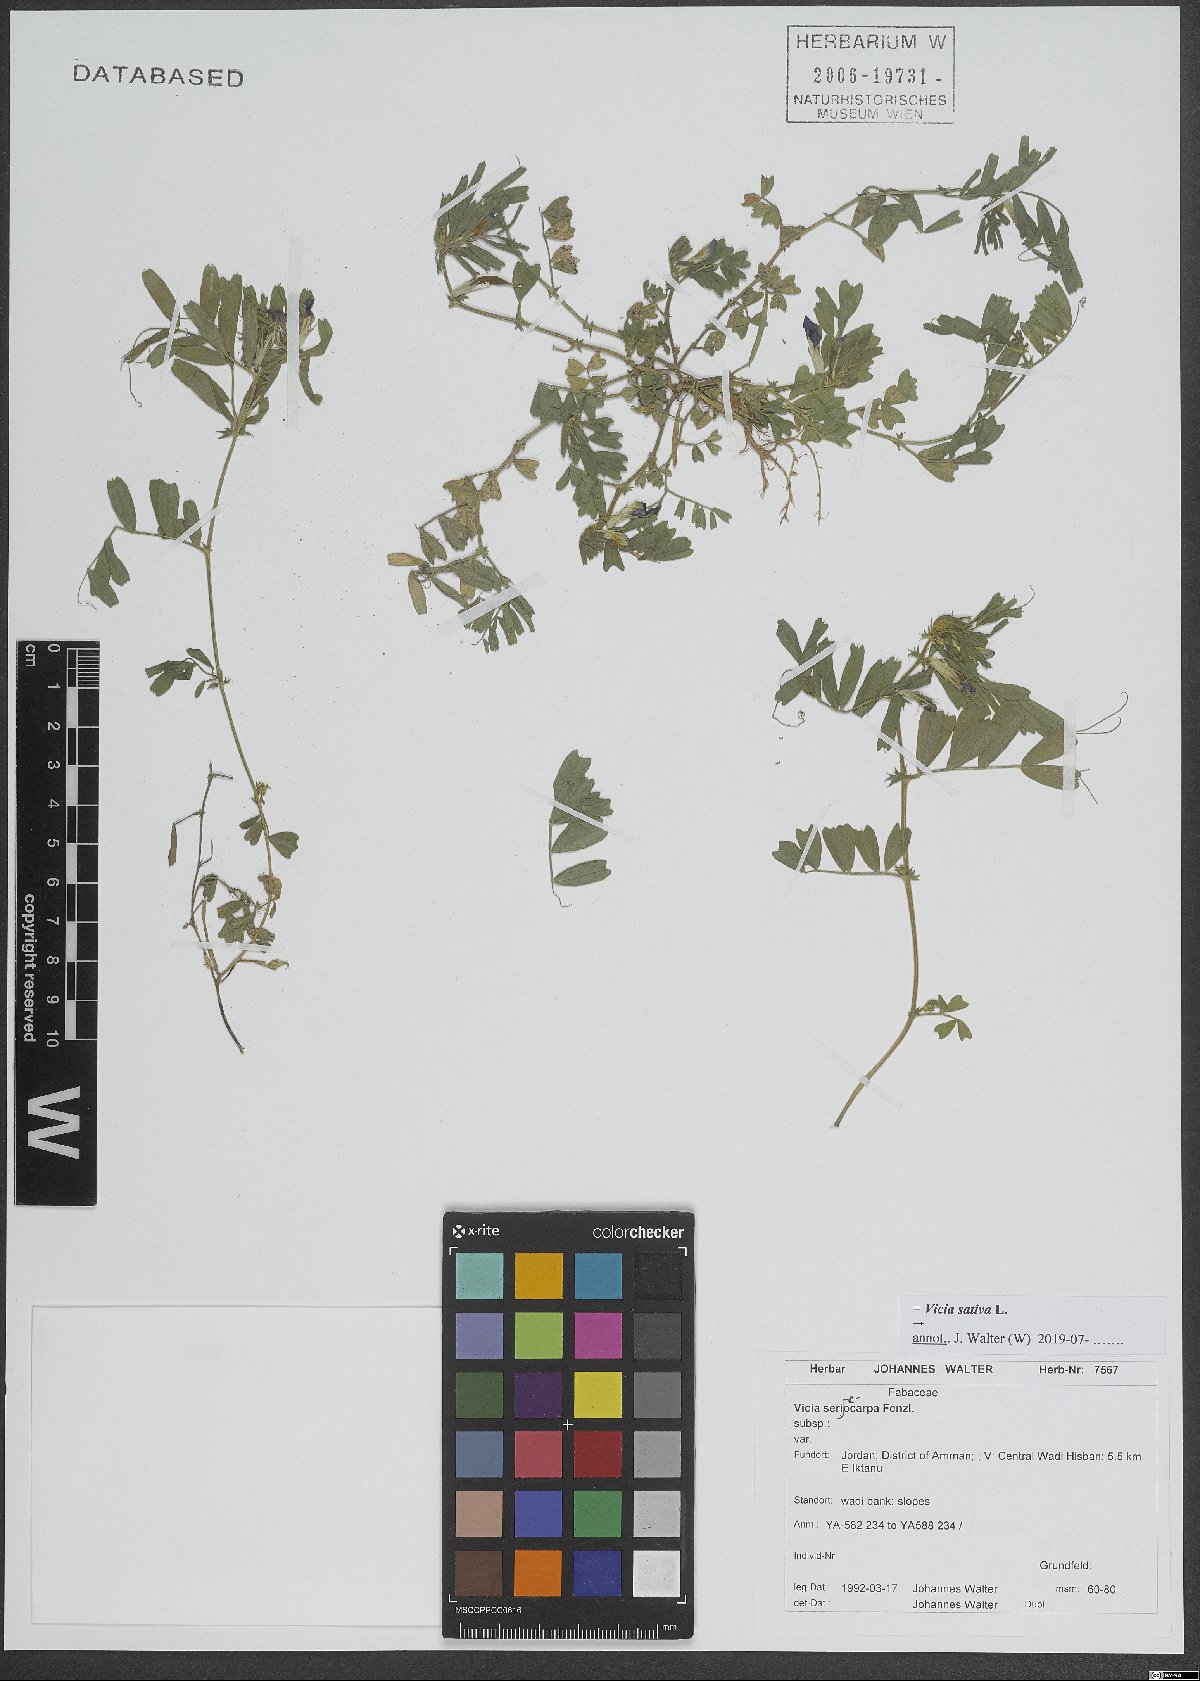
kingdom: Plantae
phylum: Tracheophyta
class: Magnoliopsida
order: Fabales
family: Fabaceae
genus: Vicia
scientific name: Vicia sativa
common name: Garden vetch
